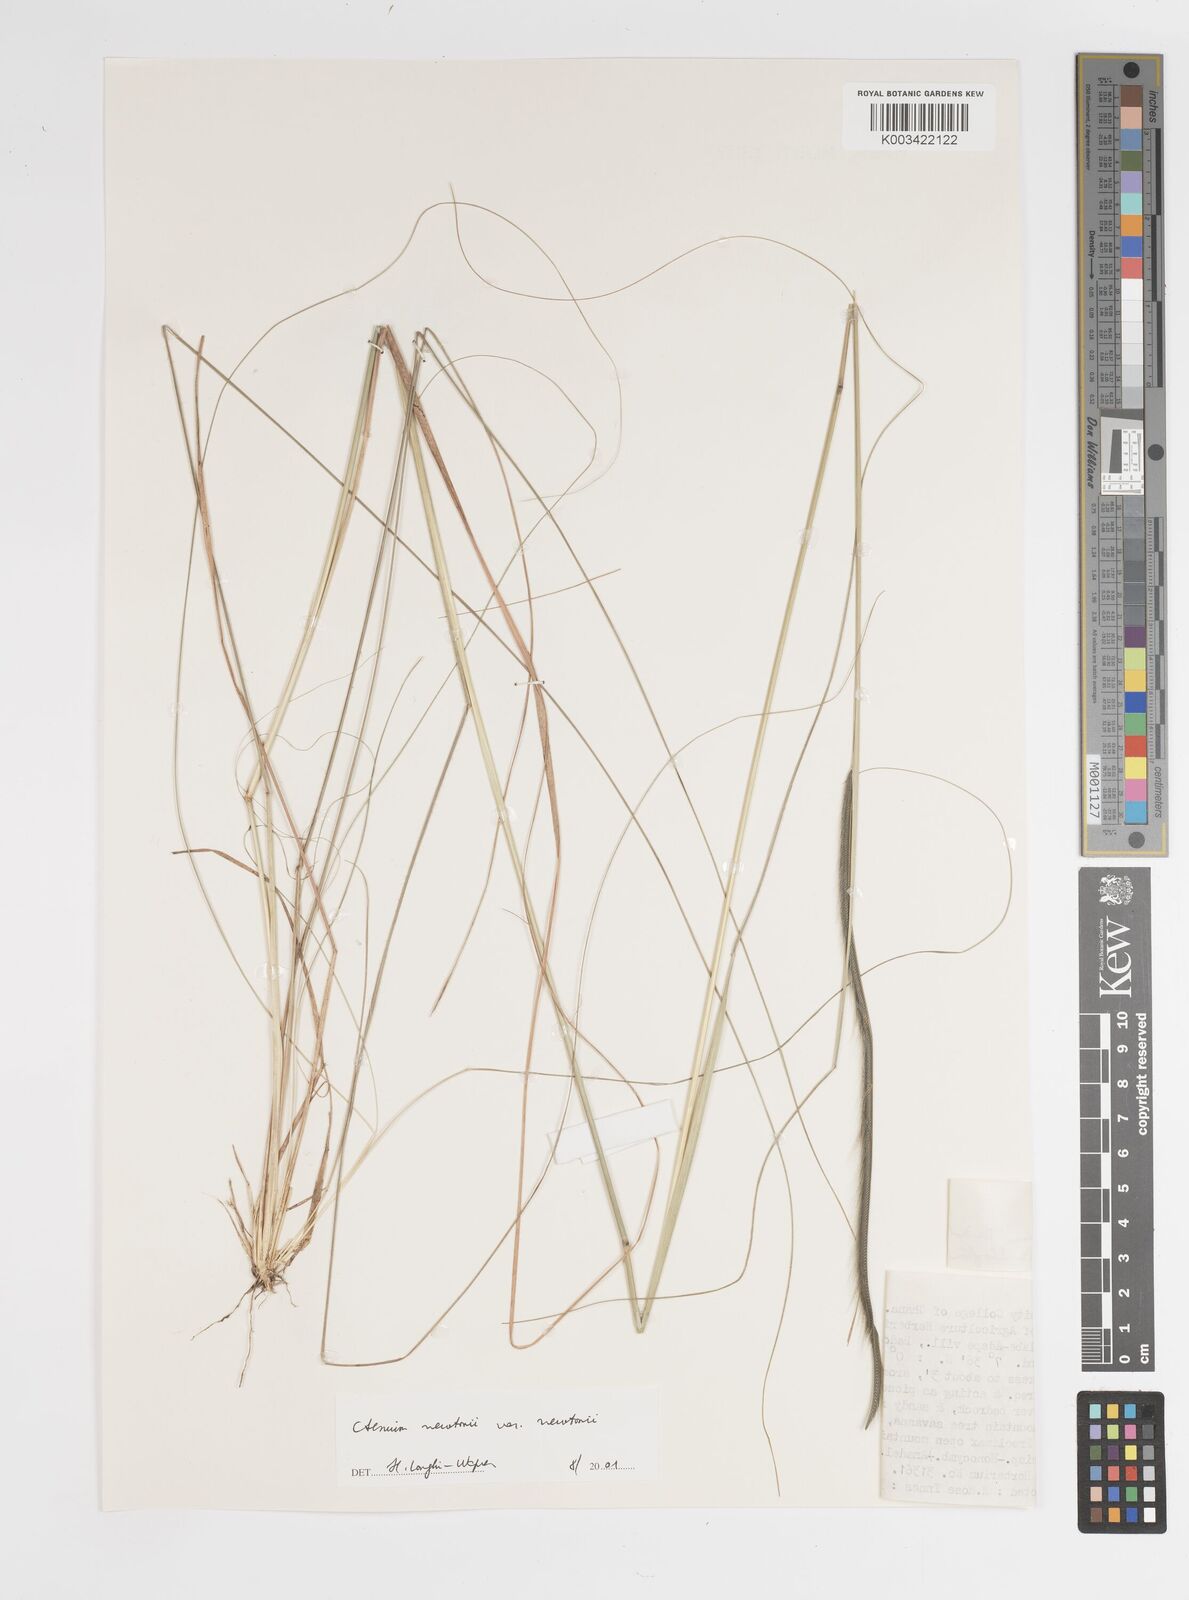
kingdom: Plantae
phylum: Tracheophyta
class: Liliopsida
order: Poales
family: Poaceae
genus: Ctenium
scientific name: Ctenium newtonii
